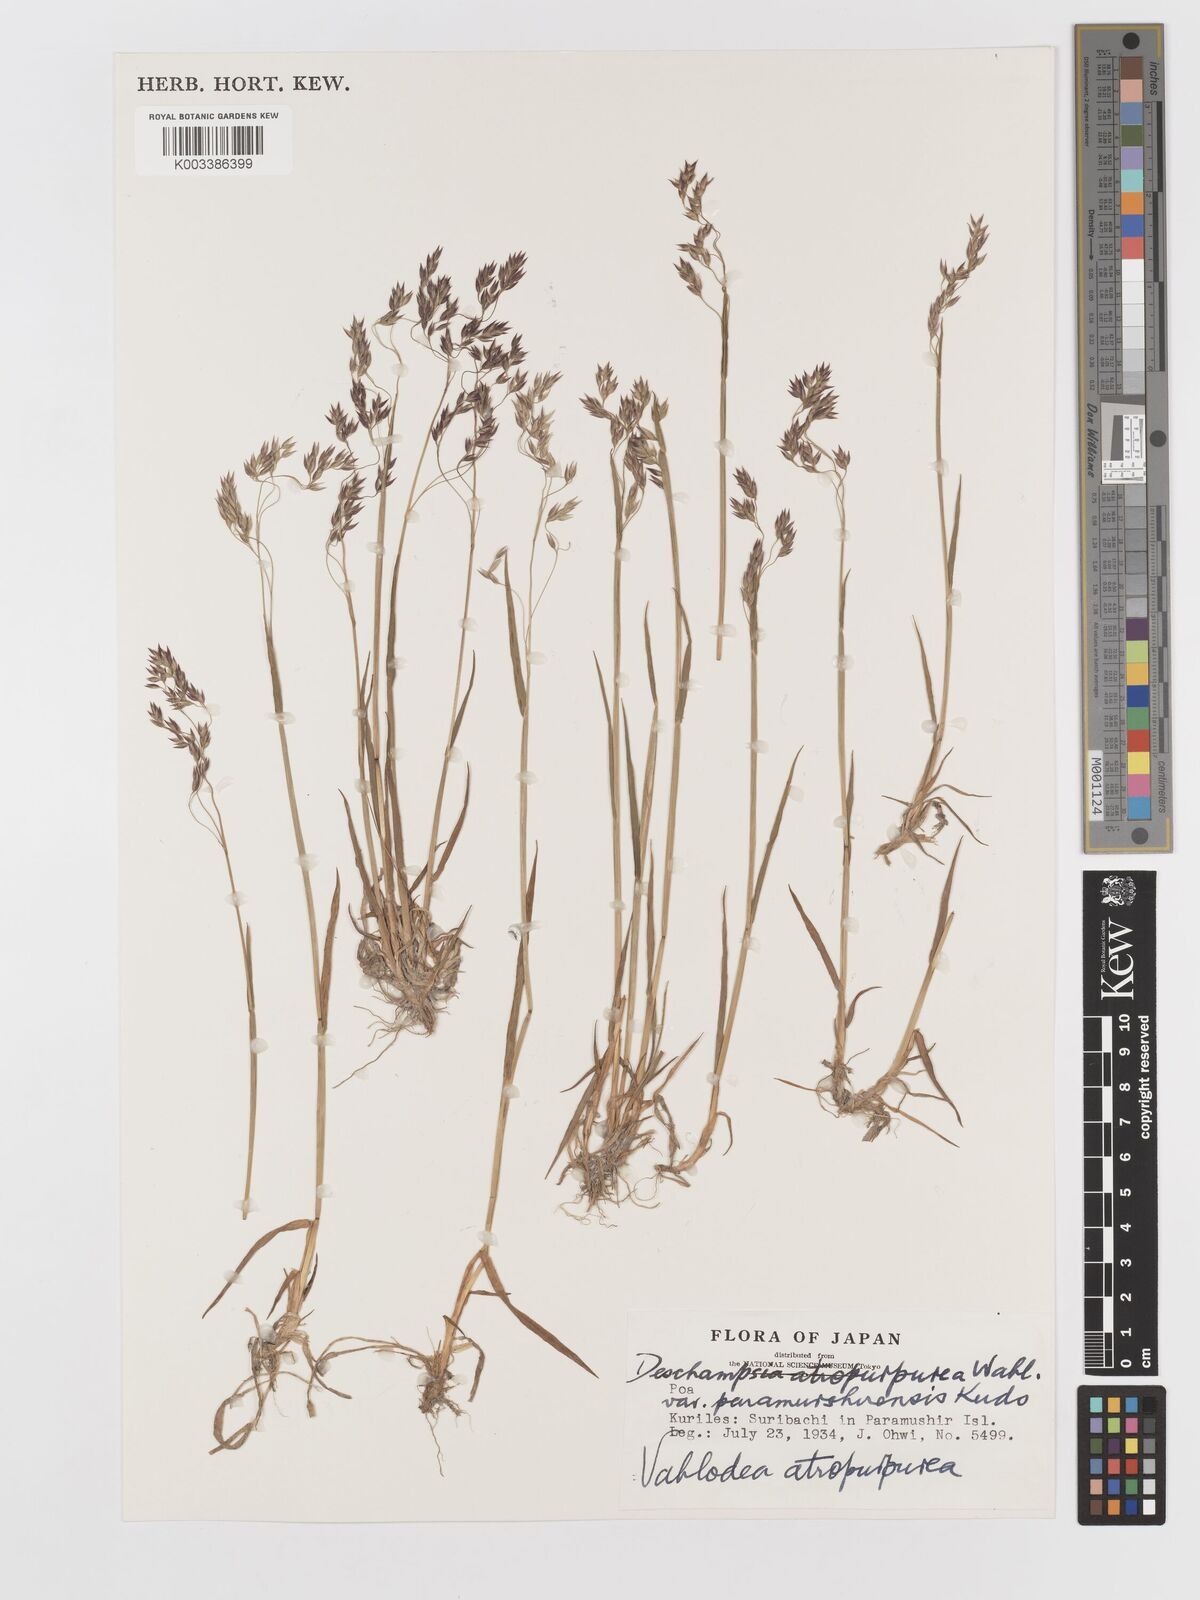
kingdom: Plantae
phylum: Tracheophyta
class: Liliopsida
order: Poales
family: Poaceae
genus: Vahlodea
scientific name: Vahlodea atropurpurea
